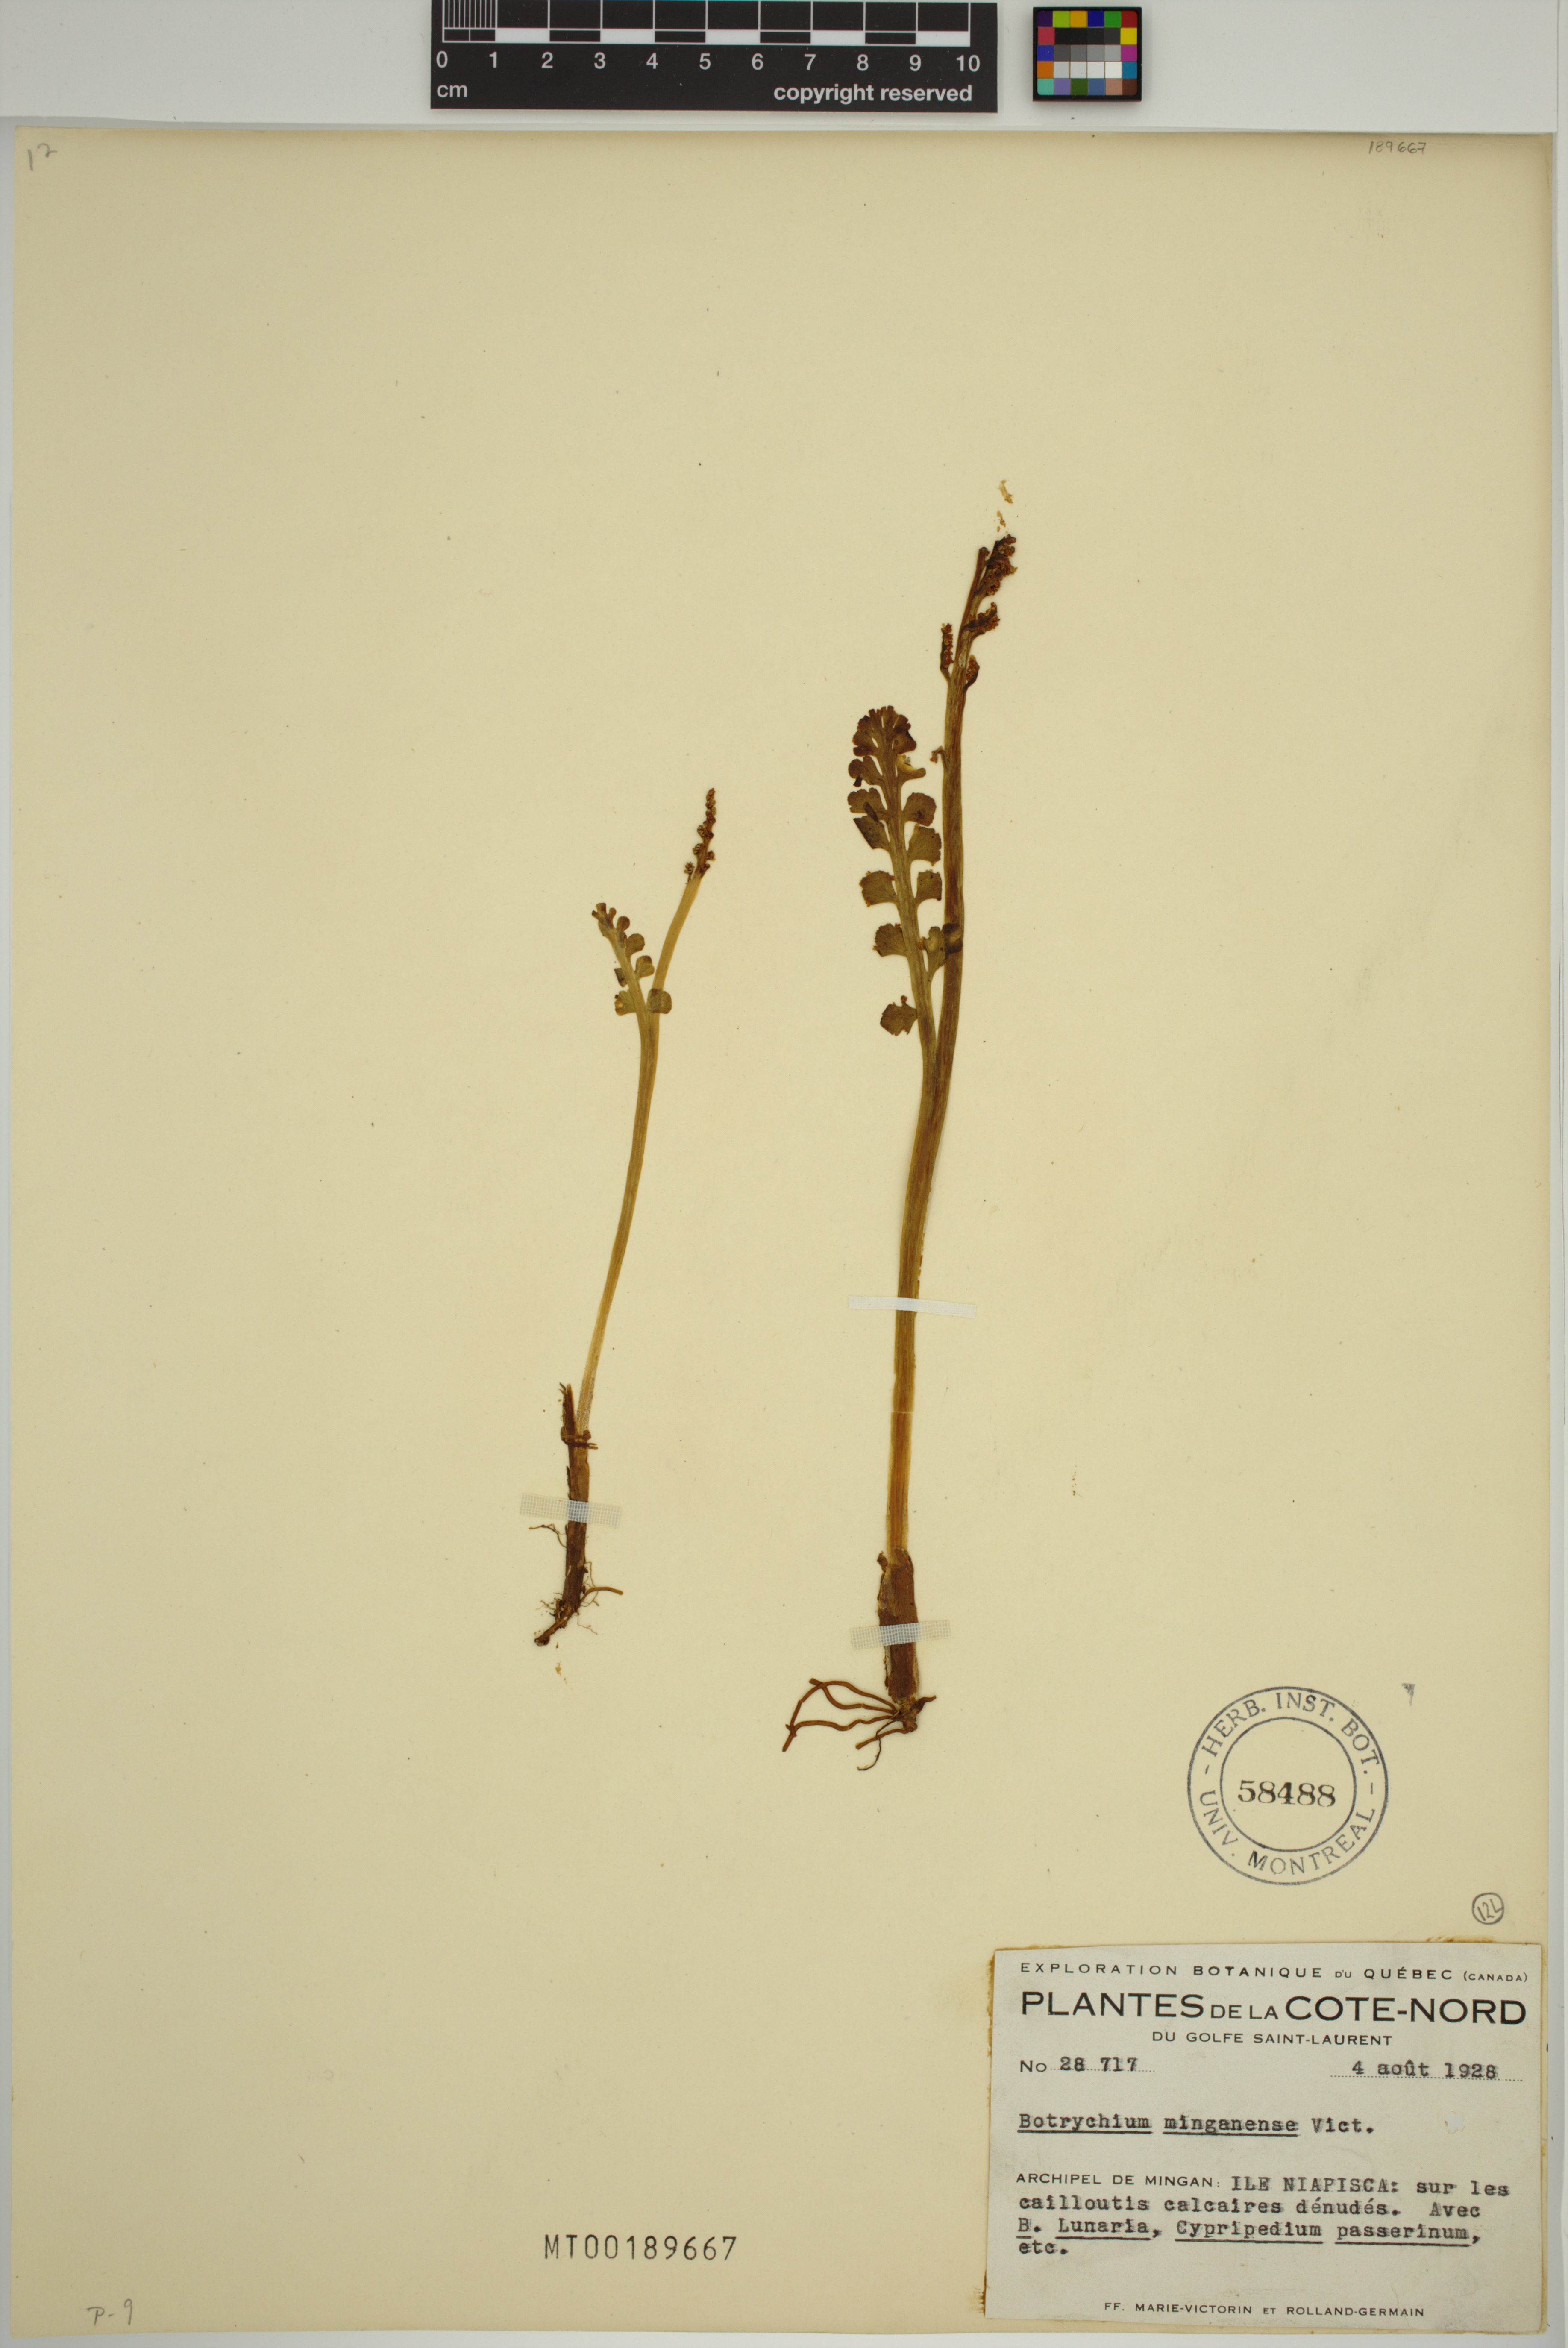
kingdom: Plantae
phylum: Tracheophyta
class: Polypodiopsida
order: Ophioglossales
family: Ophioglossaceae
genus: Botrychium
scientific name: Botrychium minganense
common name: Mingan grapefern
